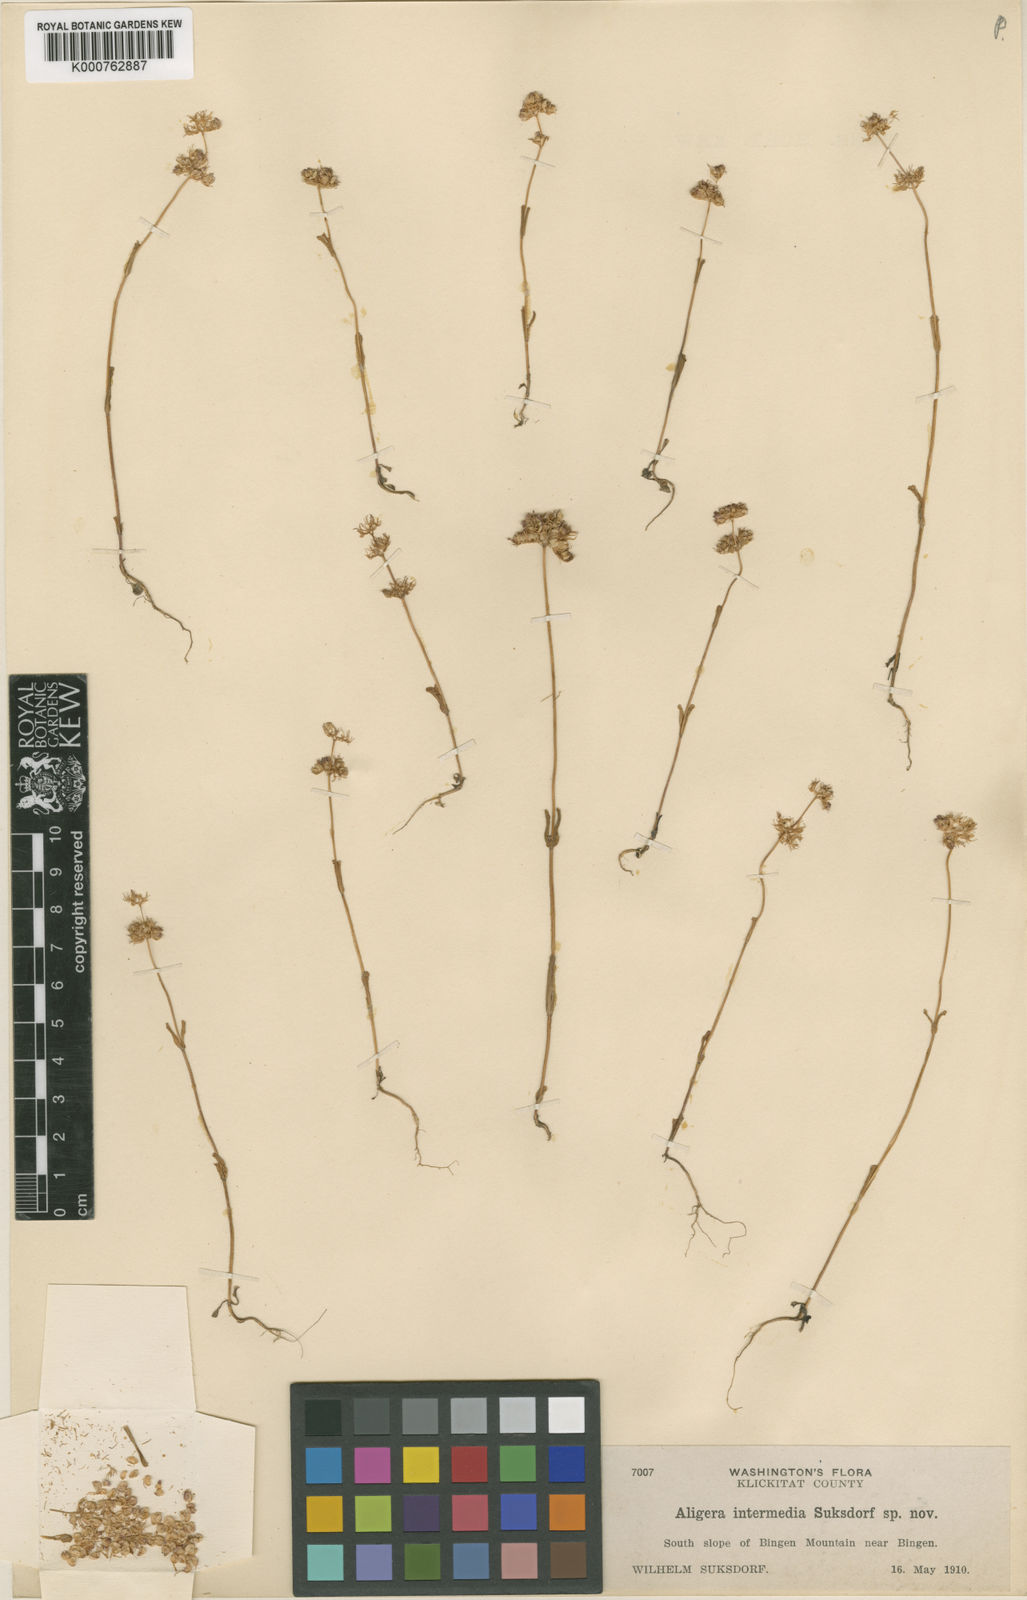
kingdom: Plantae
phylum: Tracheophyta
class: Magnoliopsida
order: Dipsacales
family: Caprifoliaceae
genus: Plectritis
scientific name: Plectritis ciliosa
